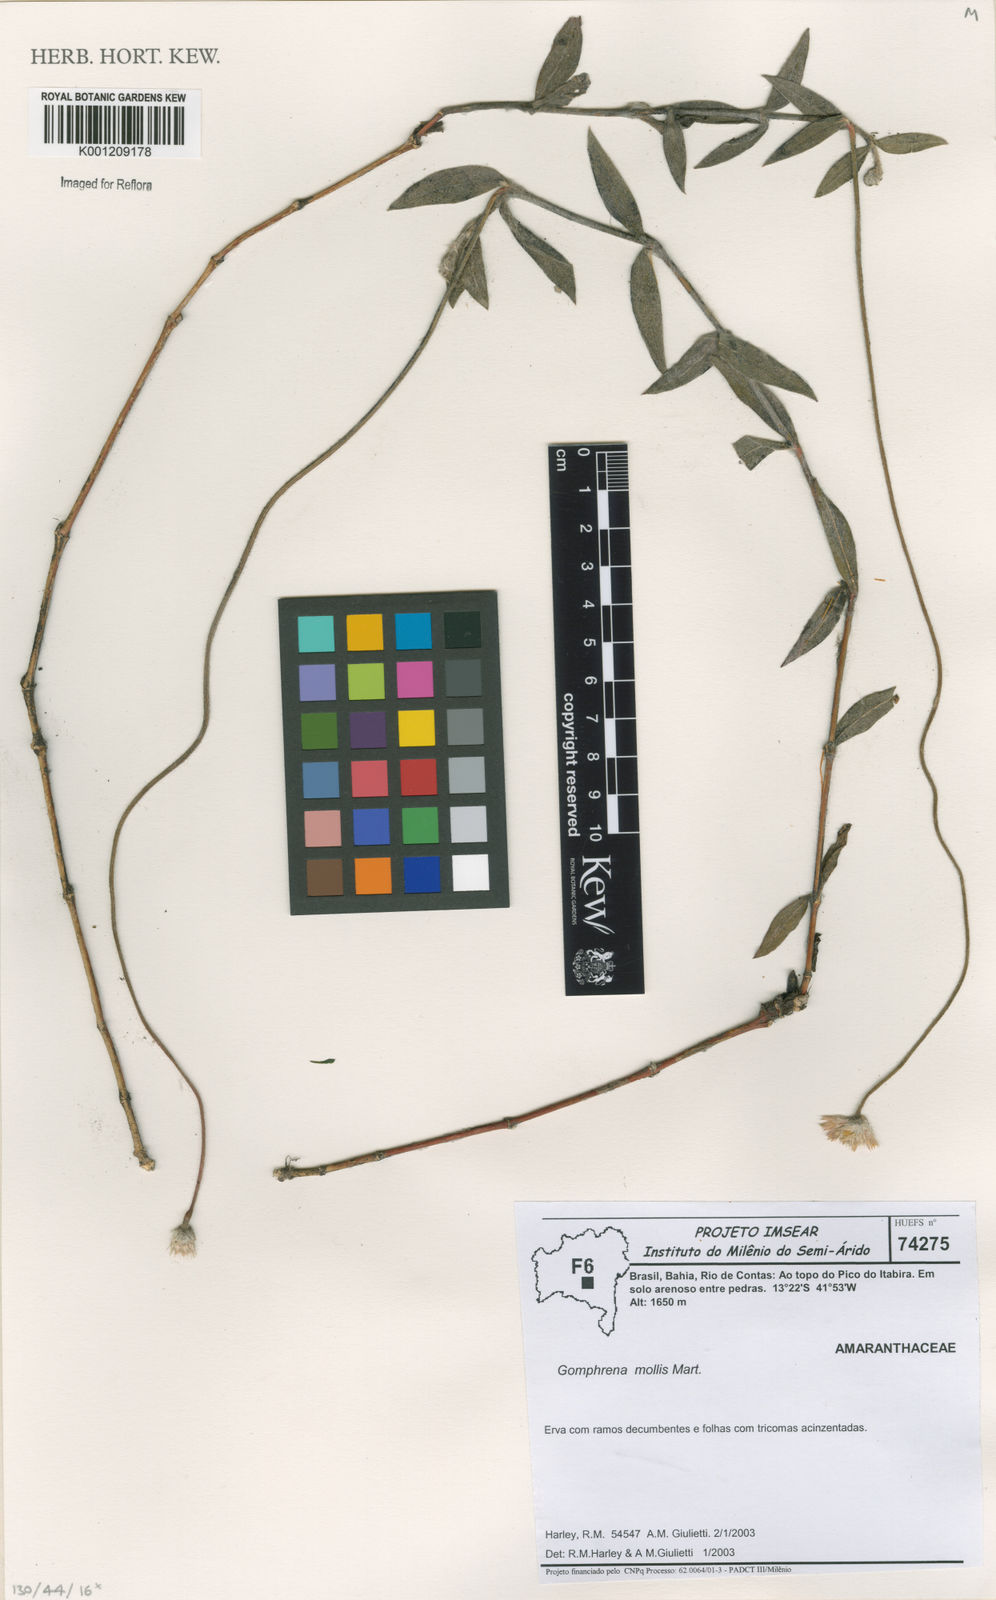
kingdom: Plantae
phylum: Tracheophyta
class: Magnoliopsida
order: Caryophyllales
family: Amaranthaceae
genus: Gomphrena
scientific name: Gomphrena mollis
